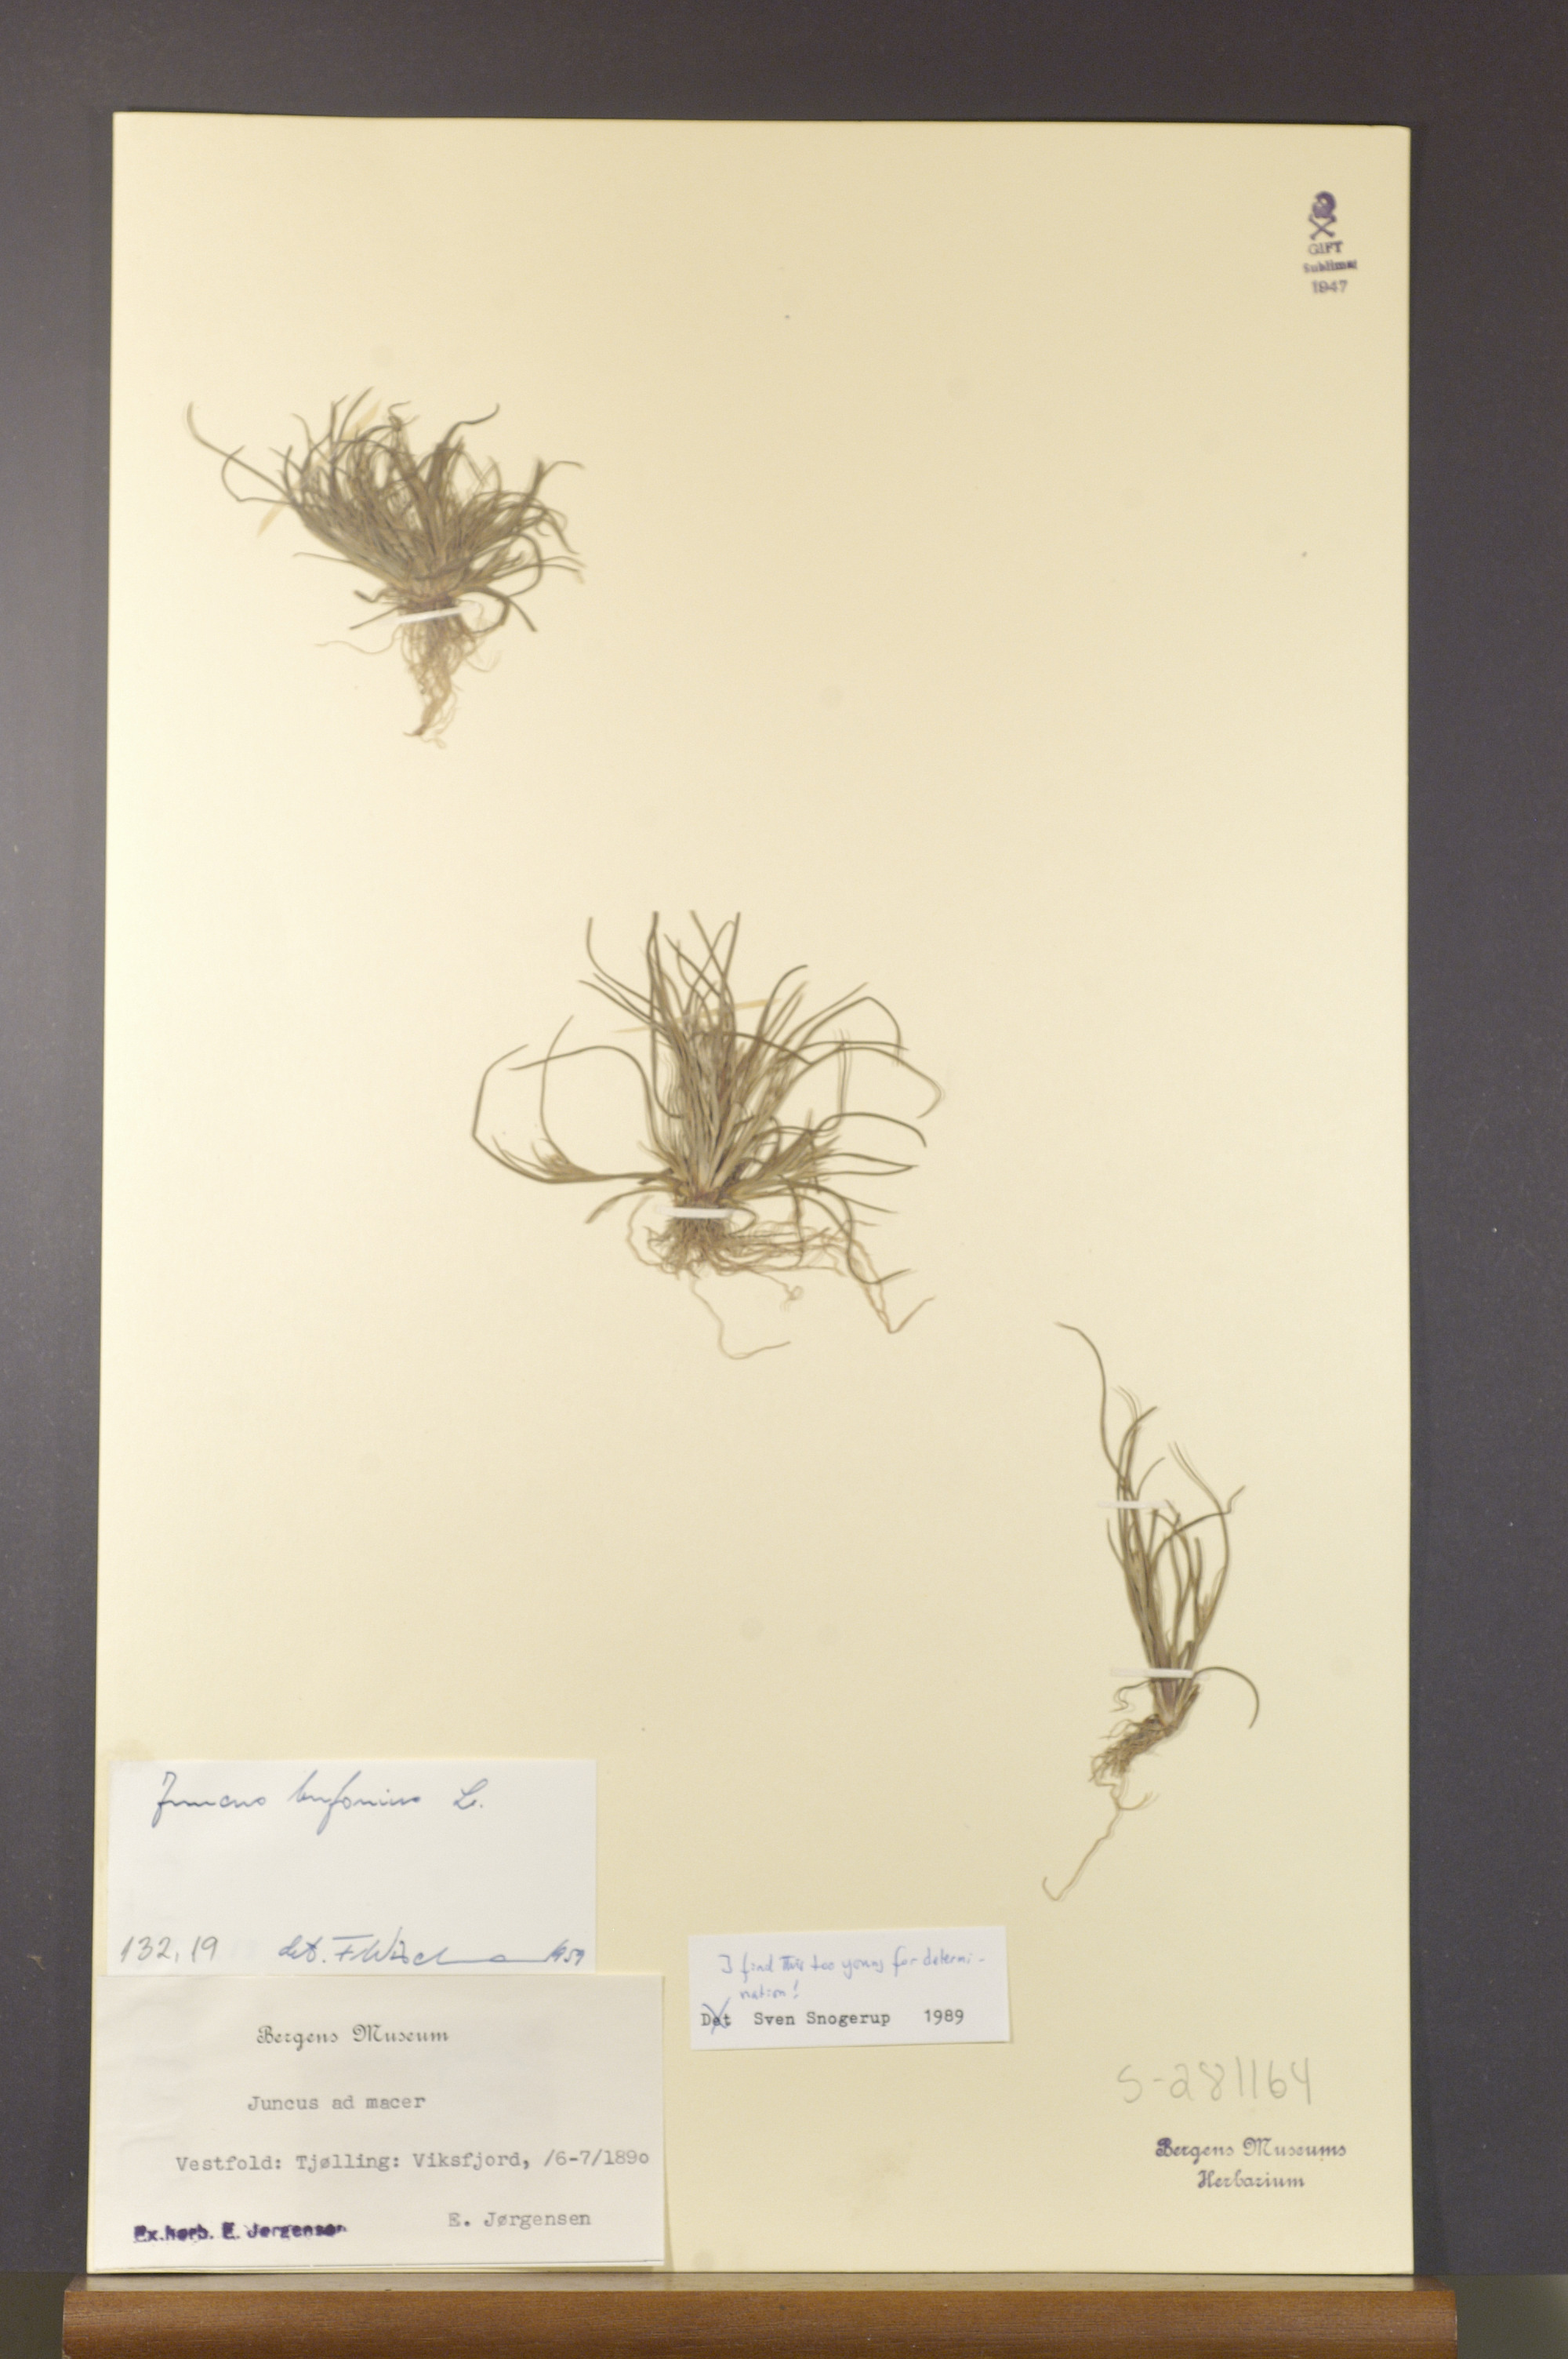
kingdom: Plantae
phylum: Tracheophyta
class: Liliopsida
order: Poales
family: Juncaceae
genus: Juncus
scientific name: Juncus
